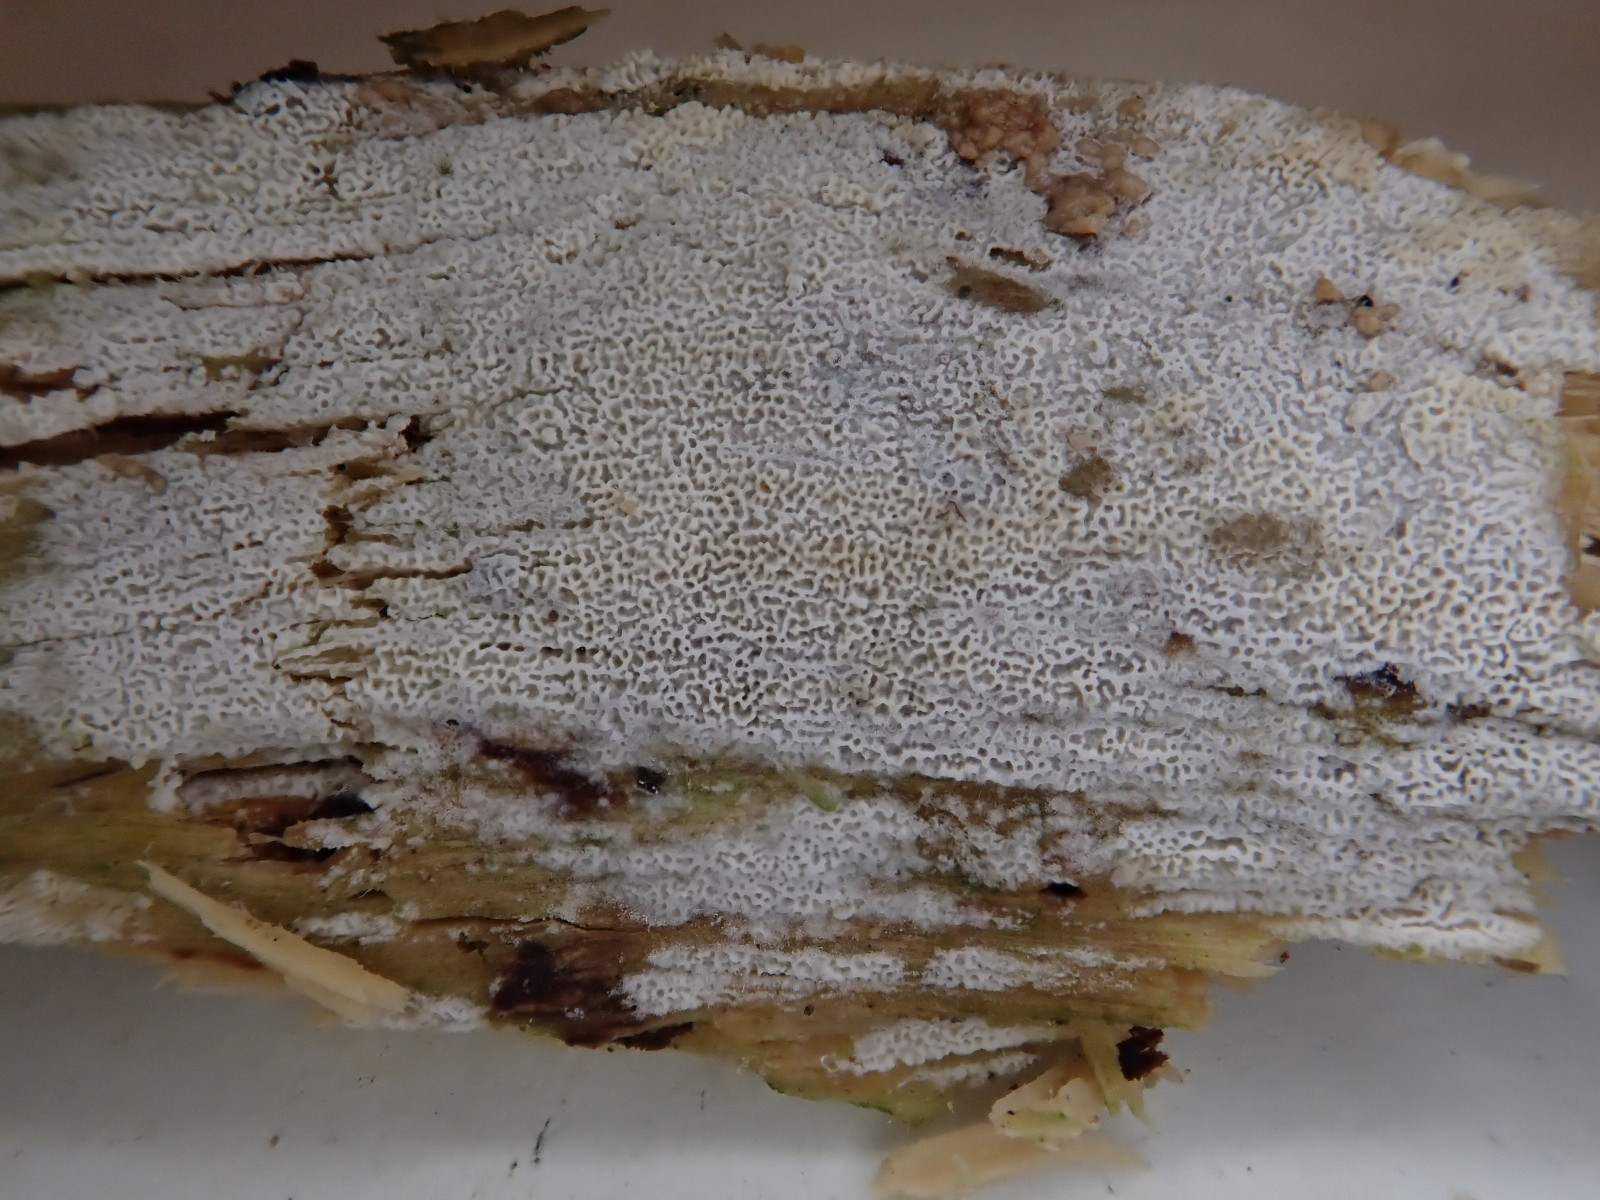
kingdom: Fungi
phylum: Basidiomycota
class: Agaricomycetes
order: Polyporales
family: Irpicaceae
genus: Ceriporia
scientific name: Ceriporia reticulata
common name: netagtig voksporesvamp
